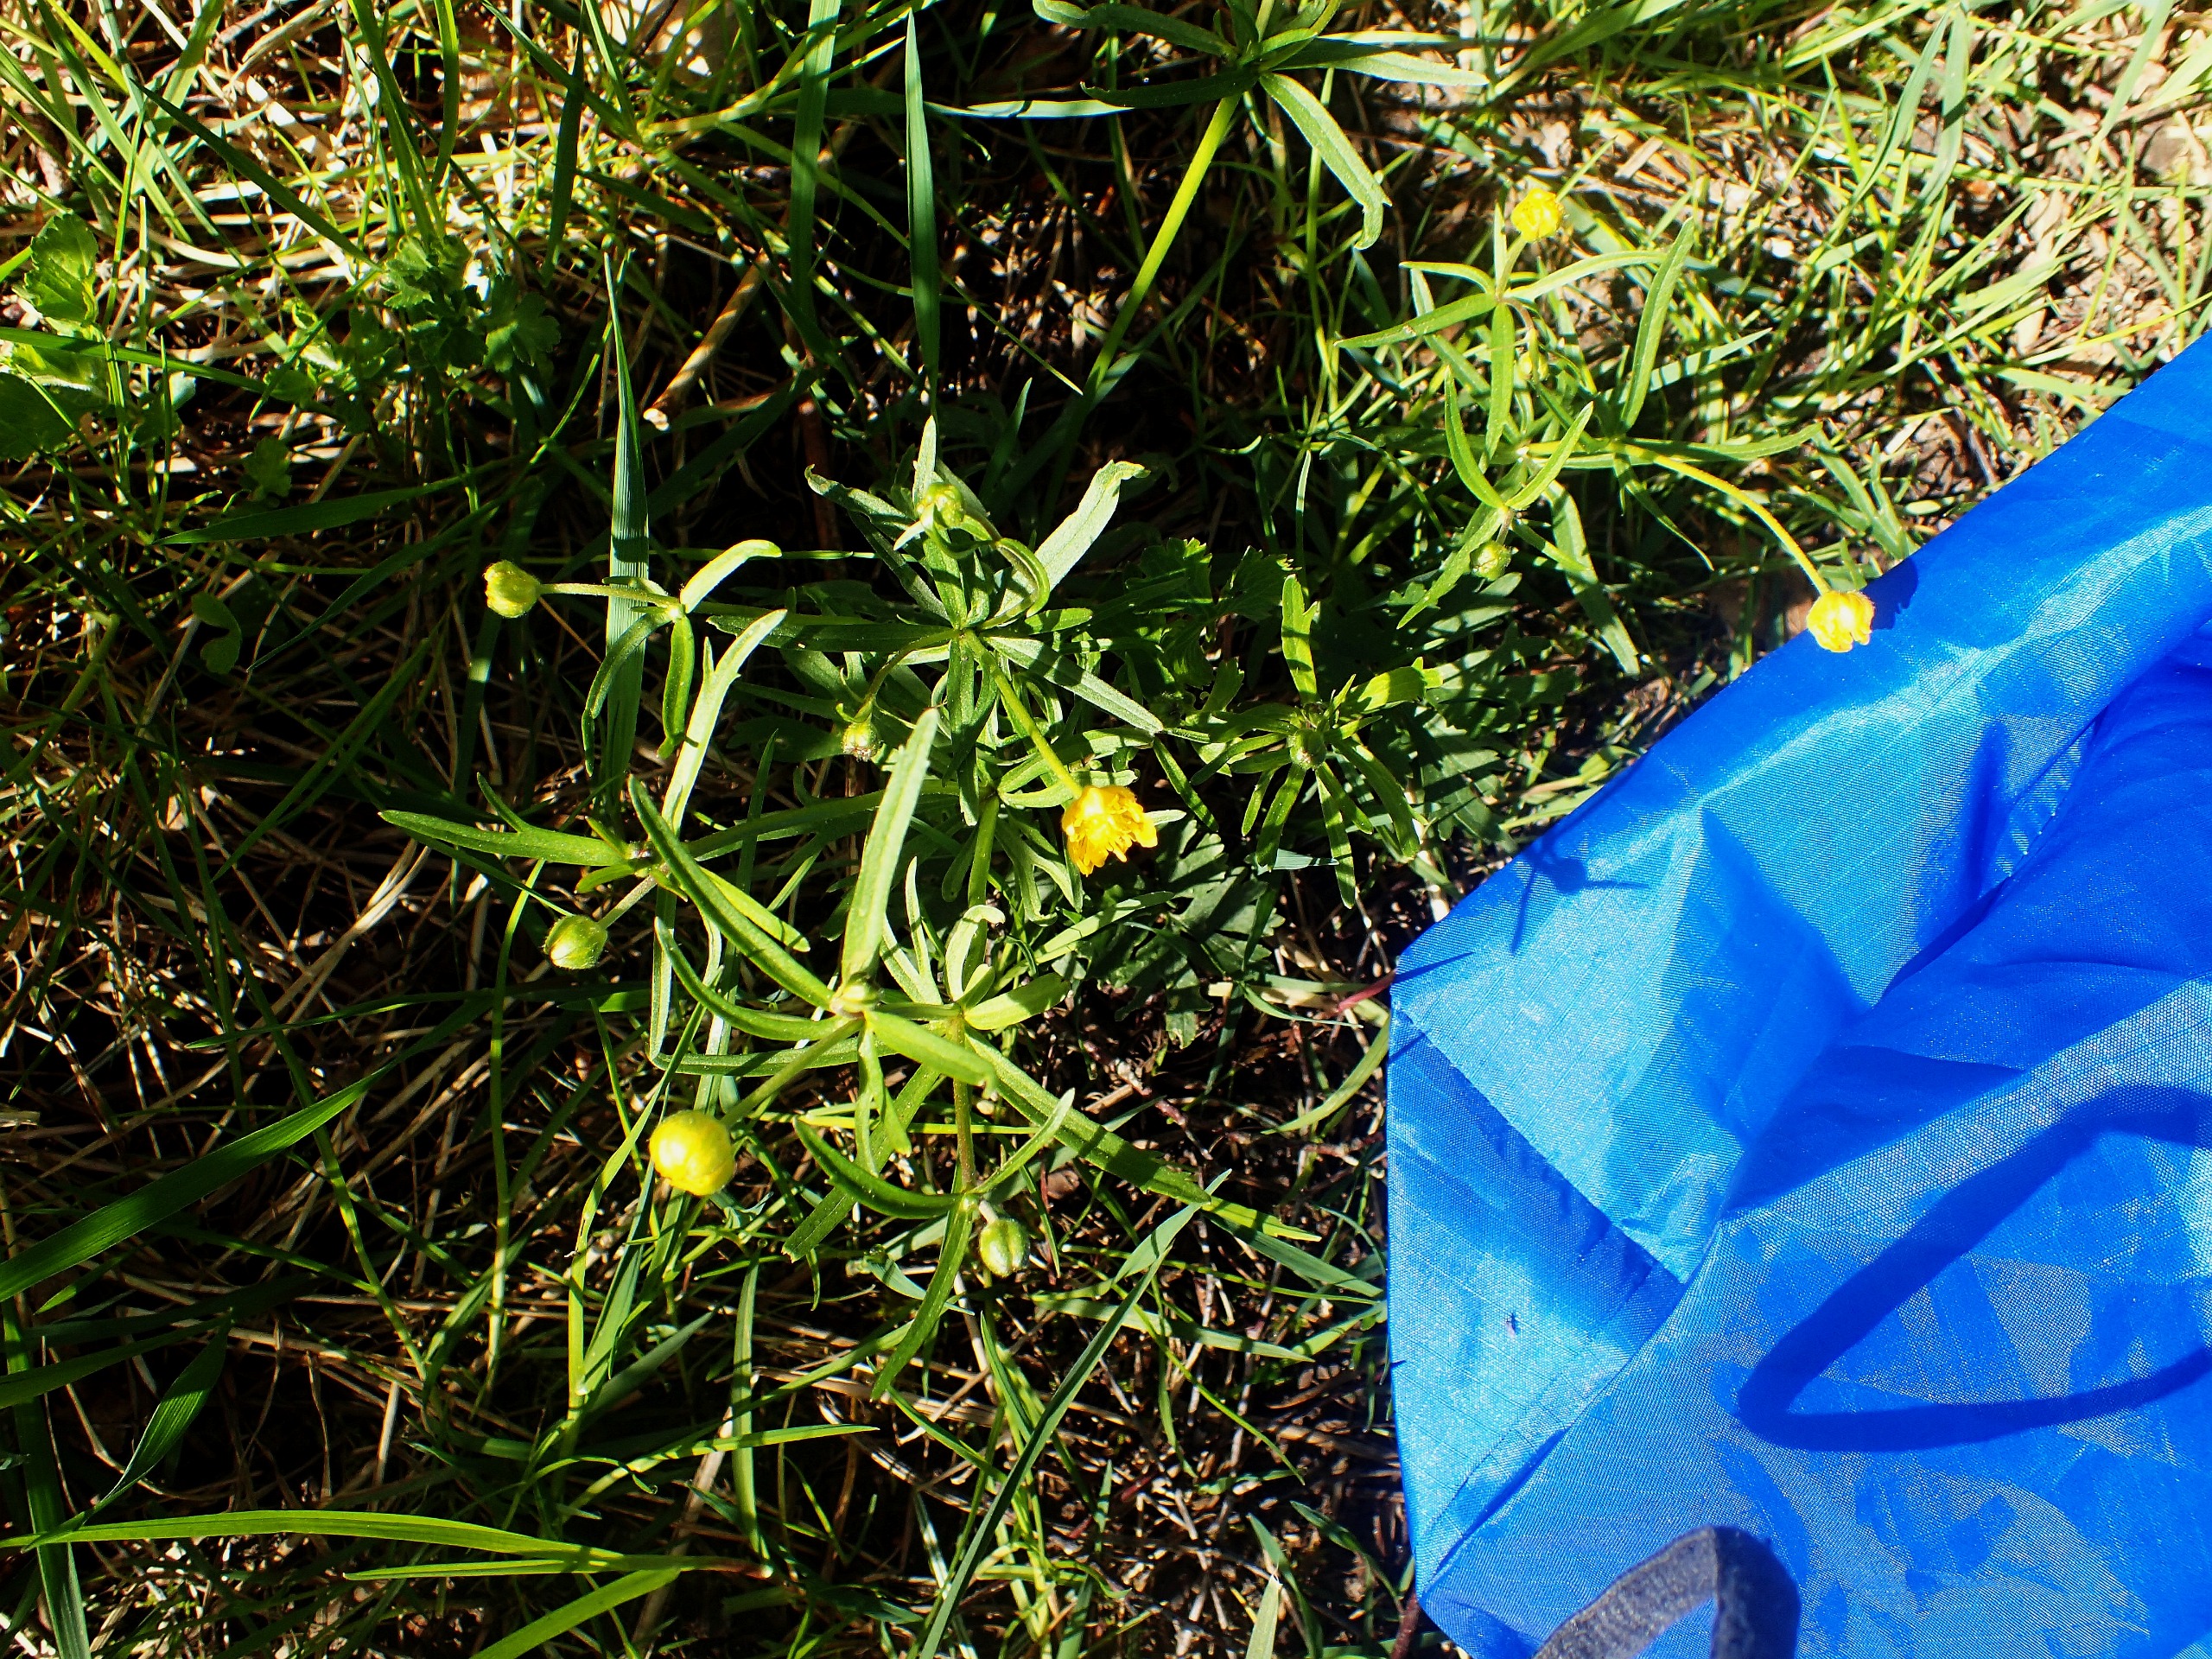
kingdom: Plantae
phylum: Tracheophyta
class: Magnoliopsida
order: Ranunculales
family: Ranunculaceae
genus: Ranunculus
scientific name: Ranunculus auricomus
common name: Nyrebladet ranunkel
